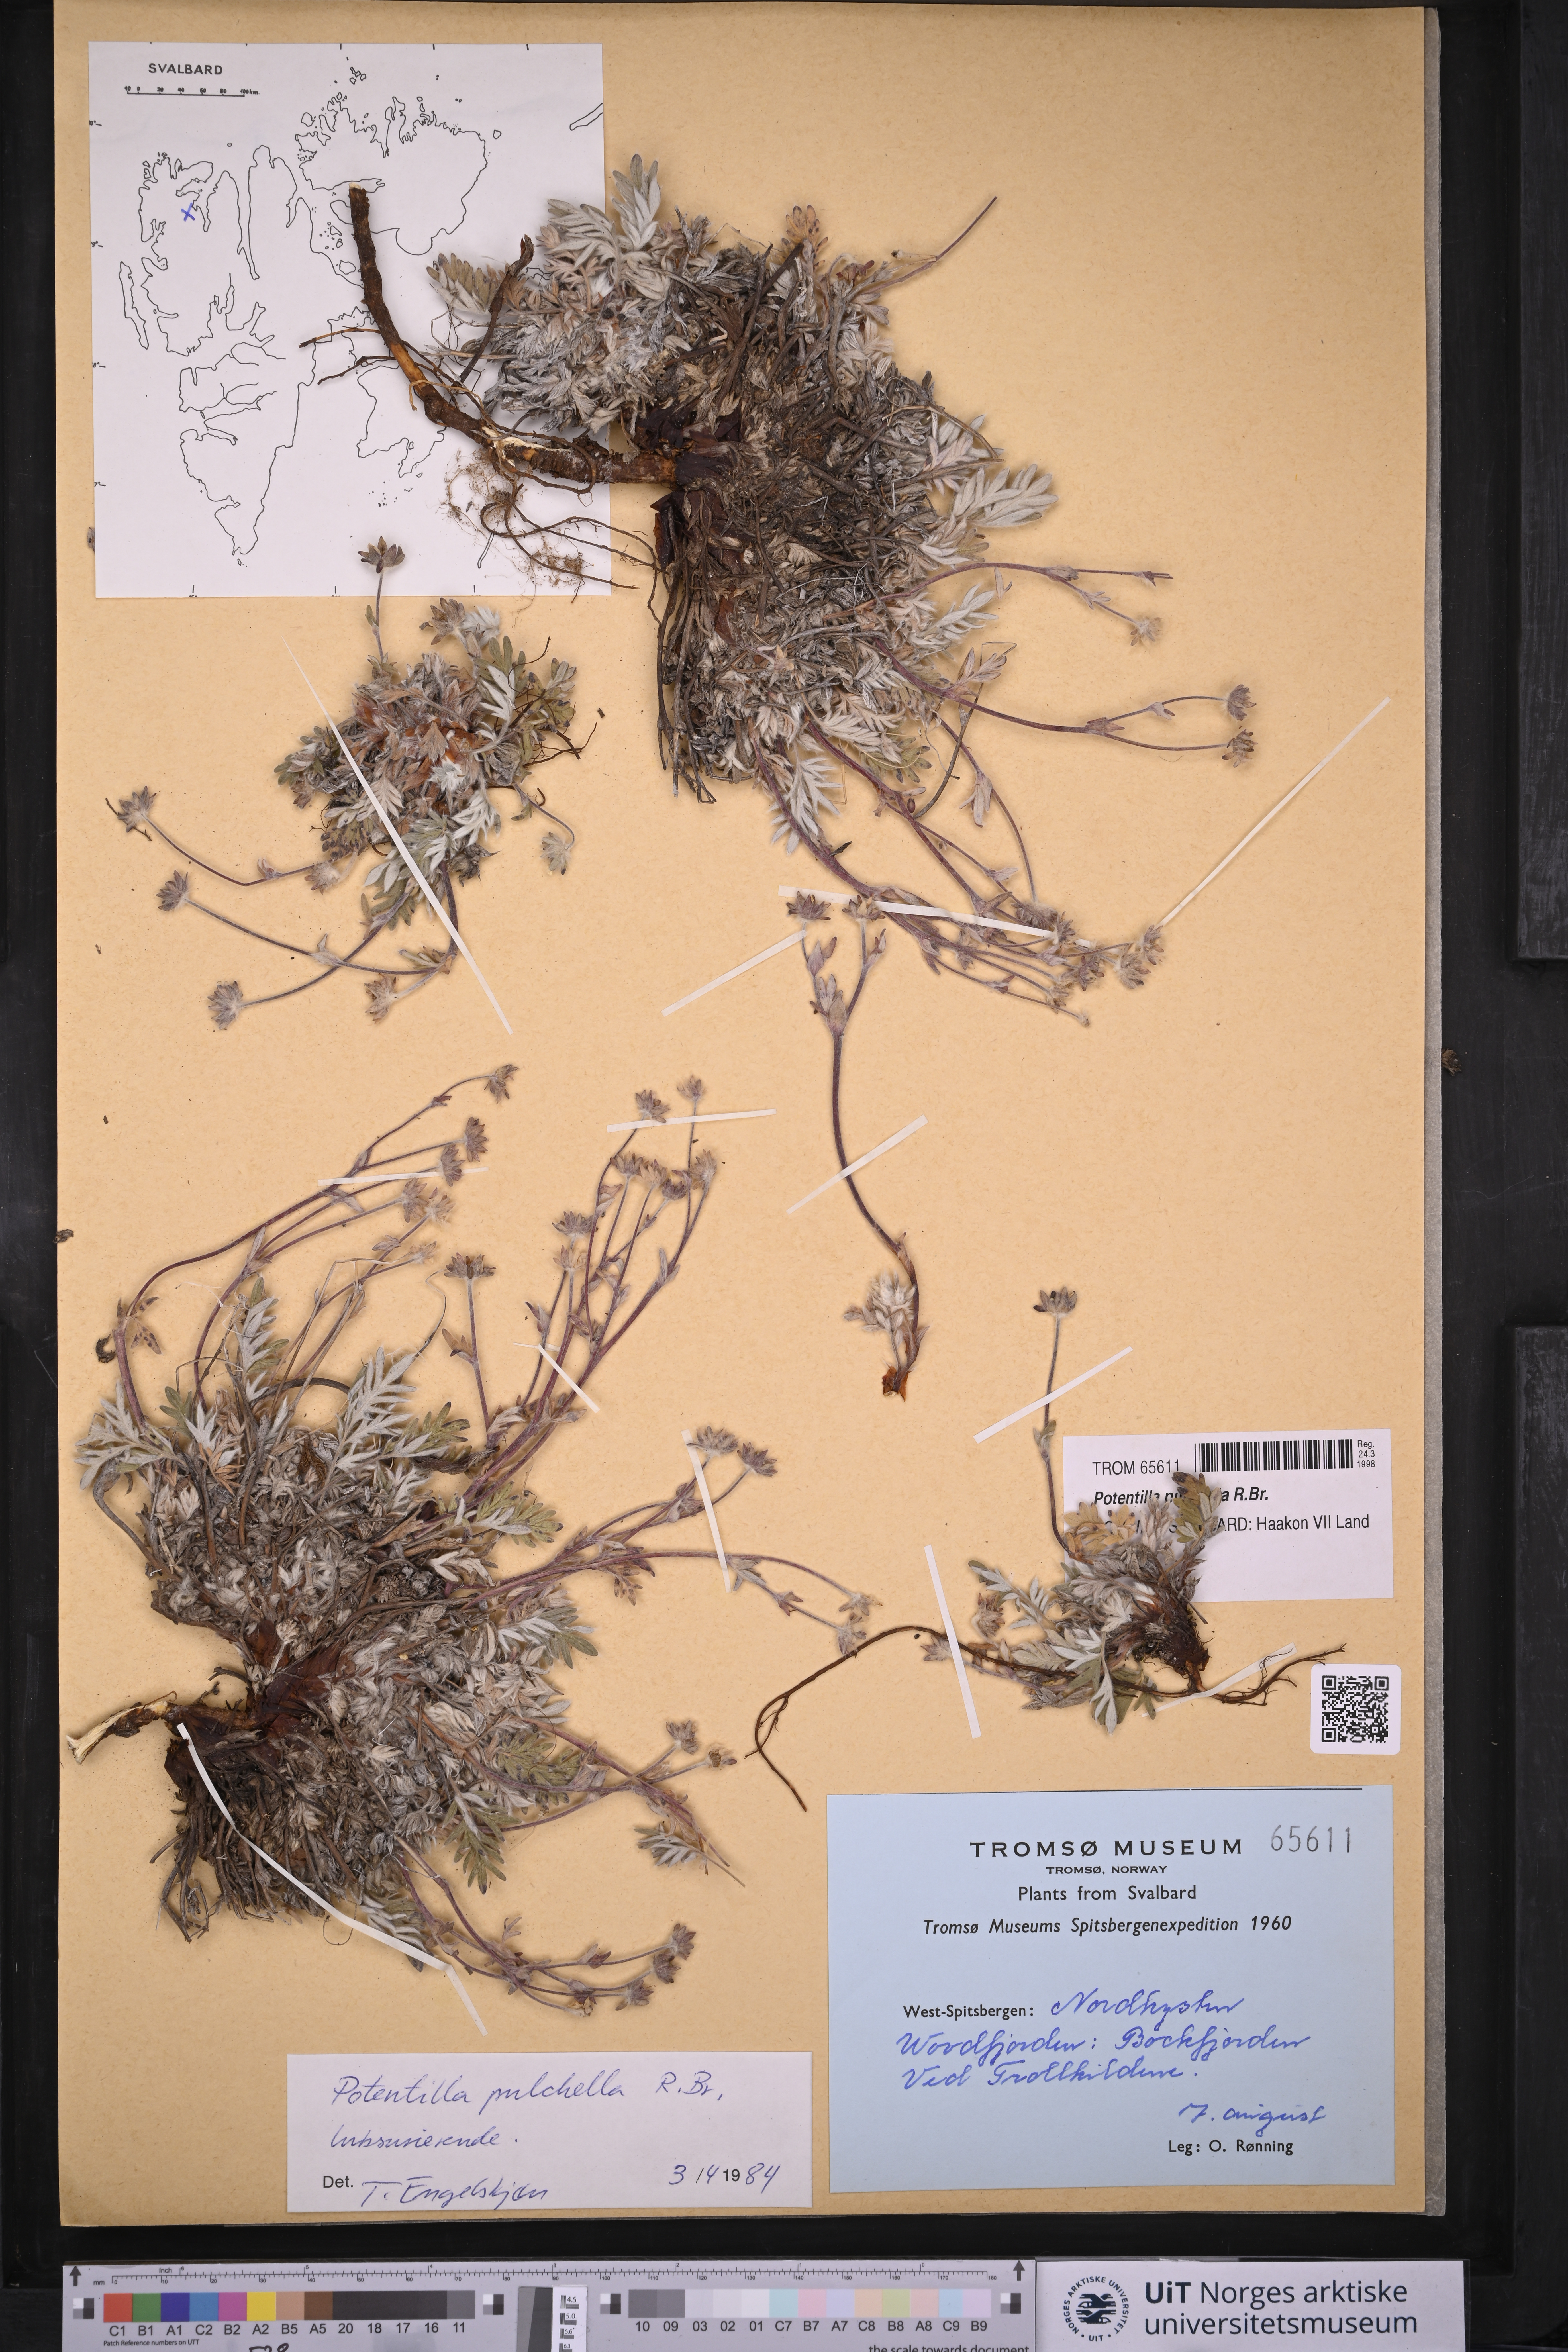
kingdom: Plantae
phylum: Tracheophyta
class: Magnoliopsida
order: Rosales
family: Rosaceae
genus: Potentilla
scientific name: Potentilla pulchella
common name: Pretty cinquefoil
